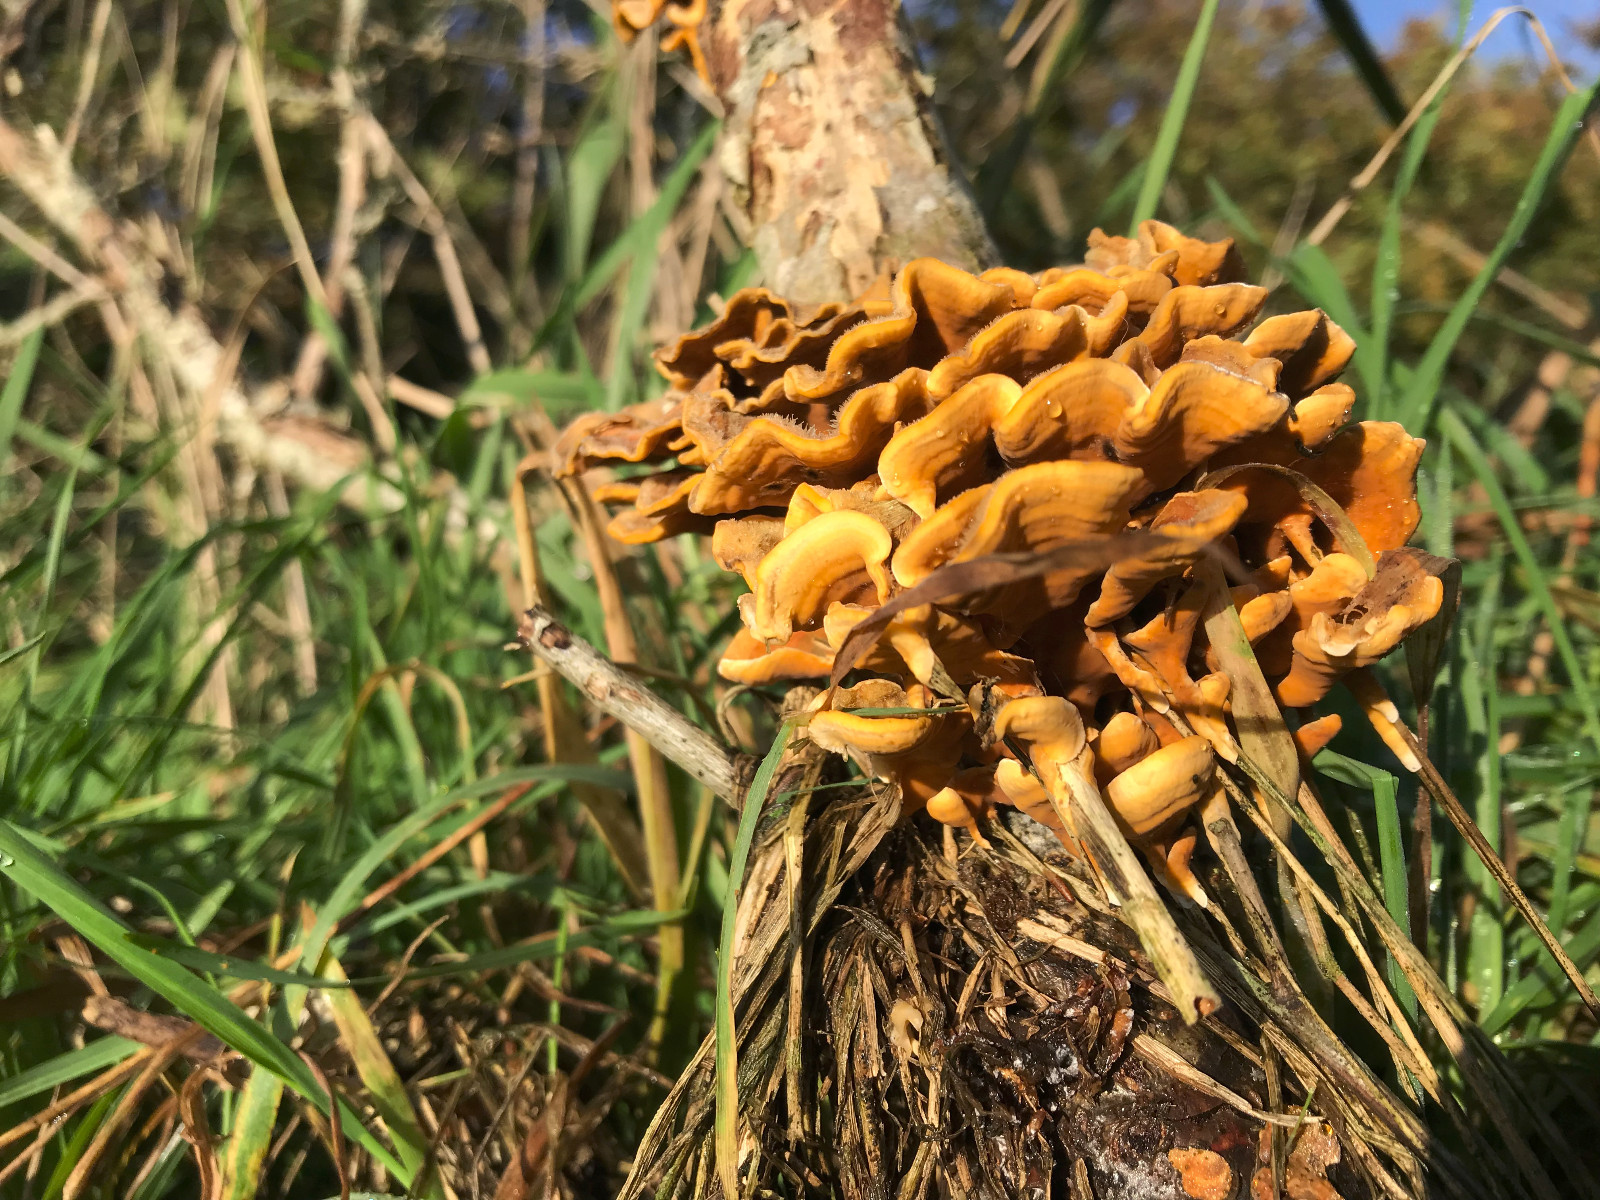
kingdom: Fungi
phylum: Basidiomycota
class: Agaricomycetes
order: Russulales
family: Stereaceae
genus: Stereum
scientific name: Stereum hirsutum
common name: håret lædersvamp
